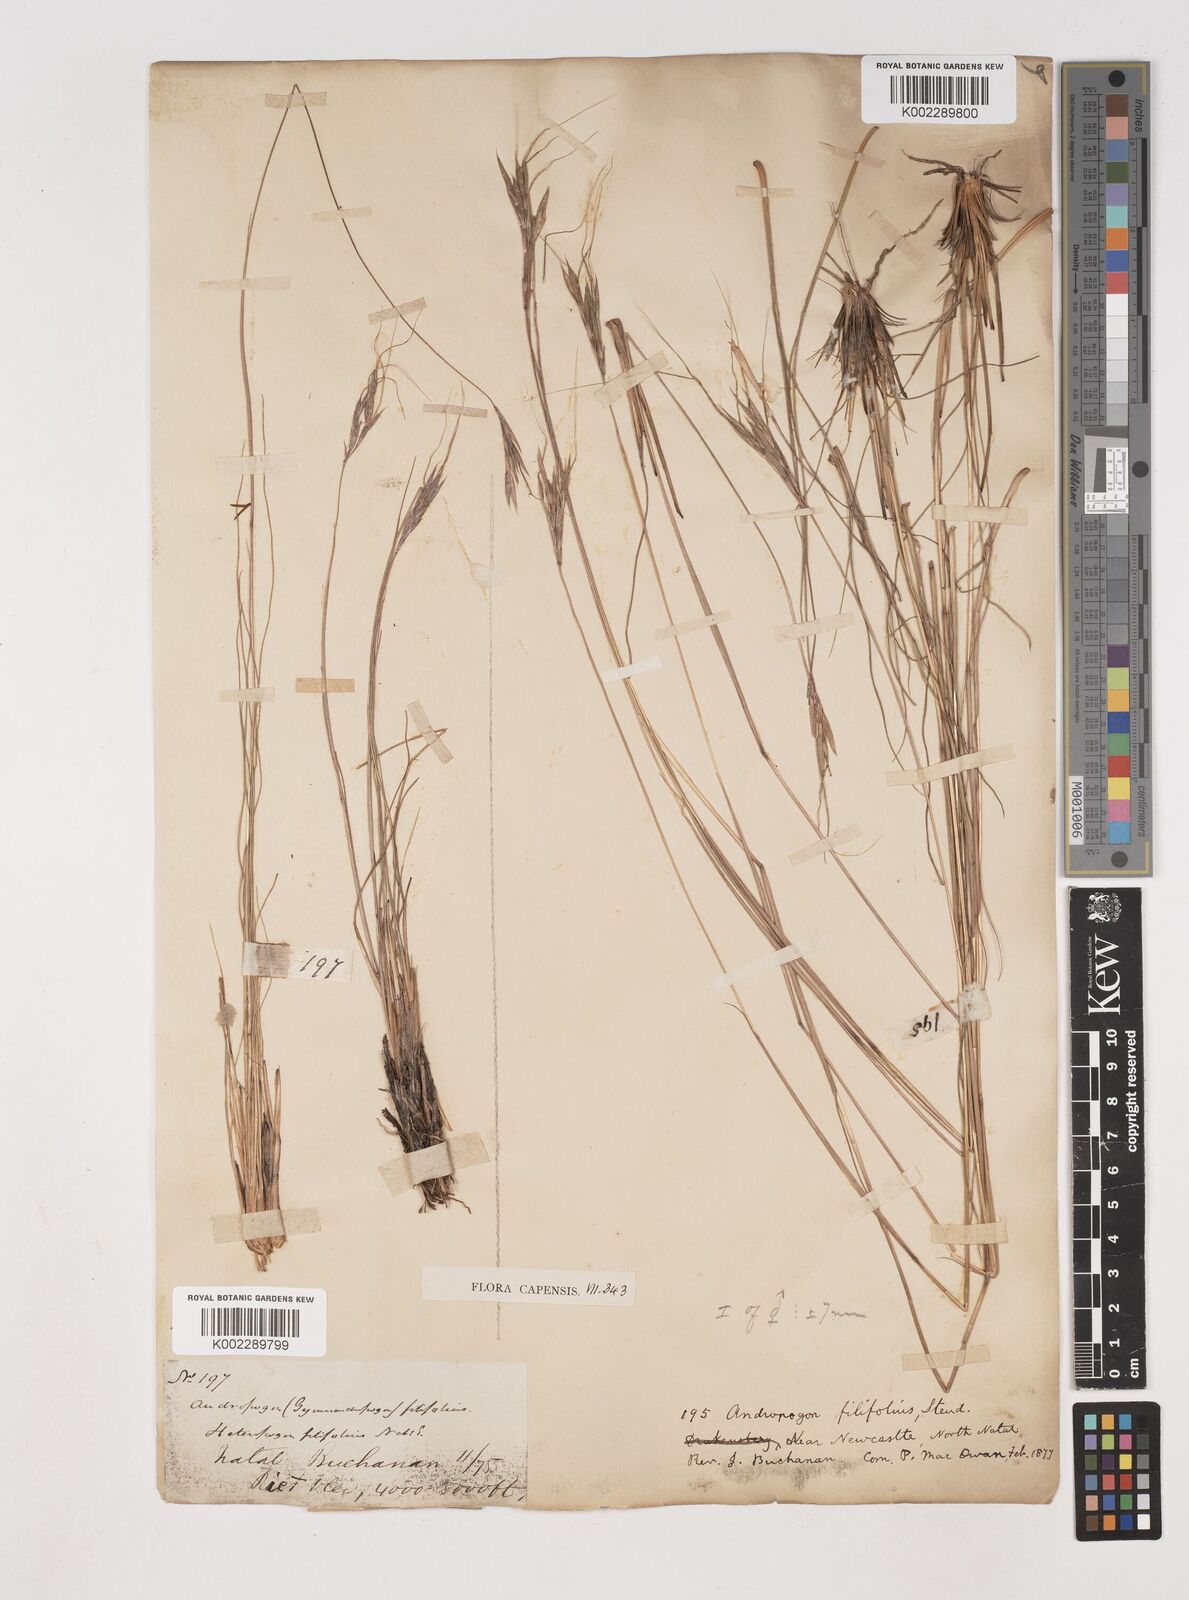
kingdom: Plantae
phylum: Tracheophyta
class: Liliopsida
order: Poales
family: Poaceae
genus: Diheteropogon
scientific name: Diheteropogon filifolius
